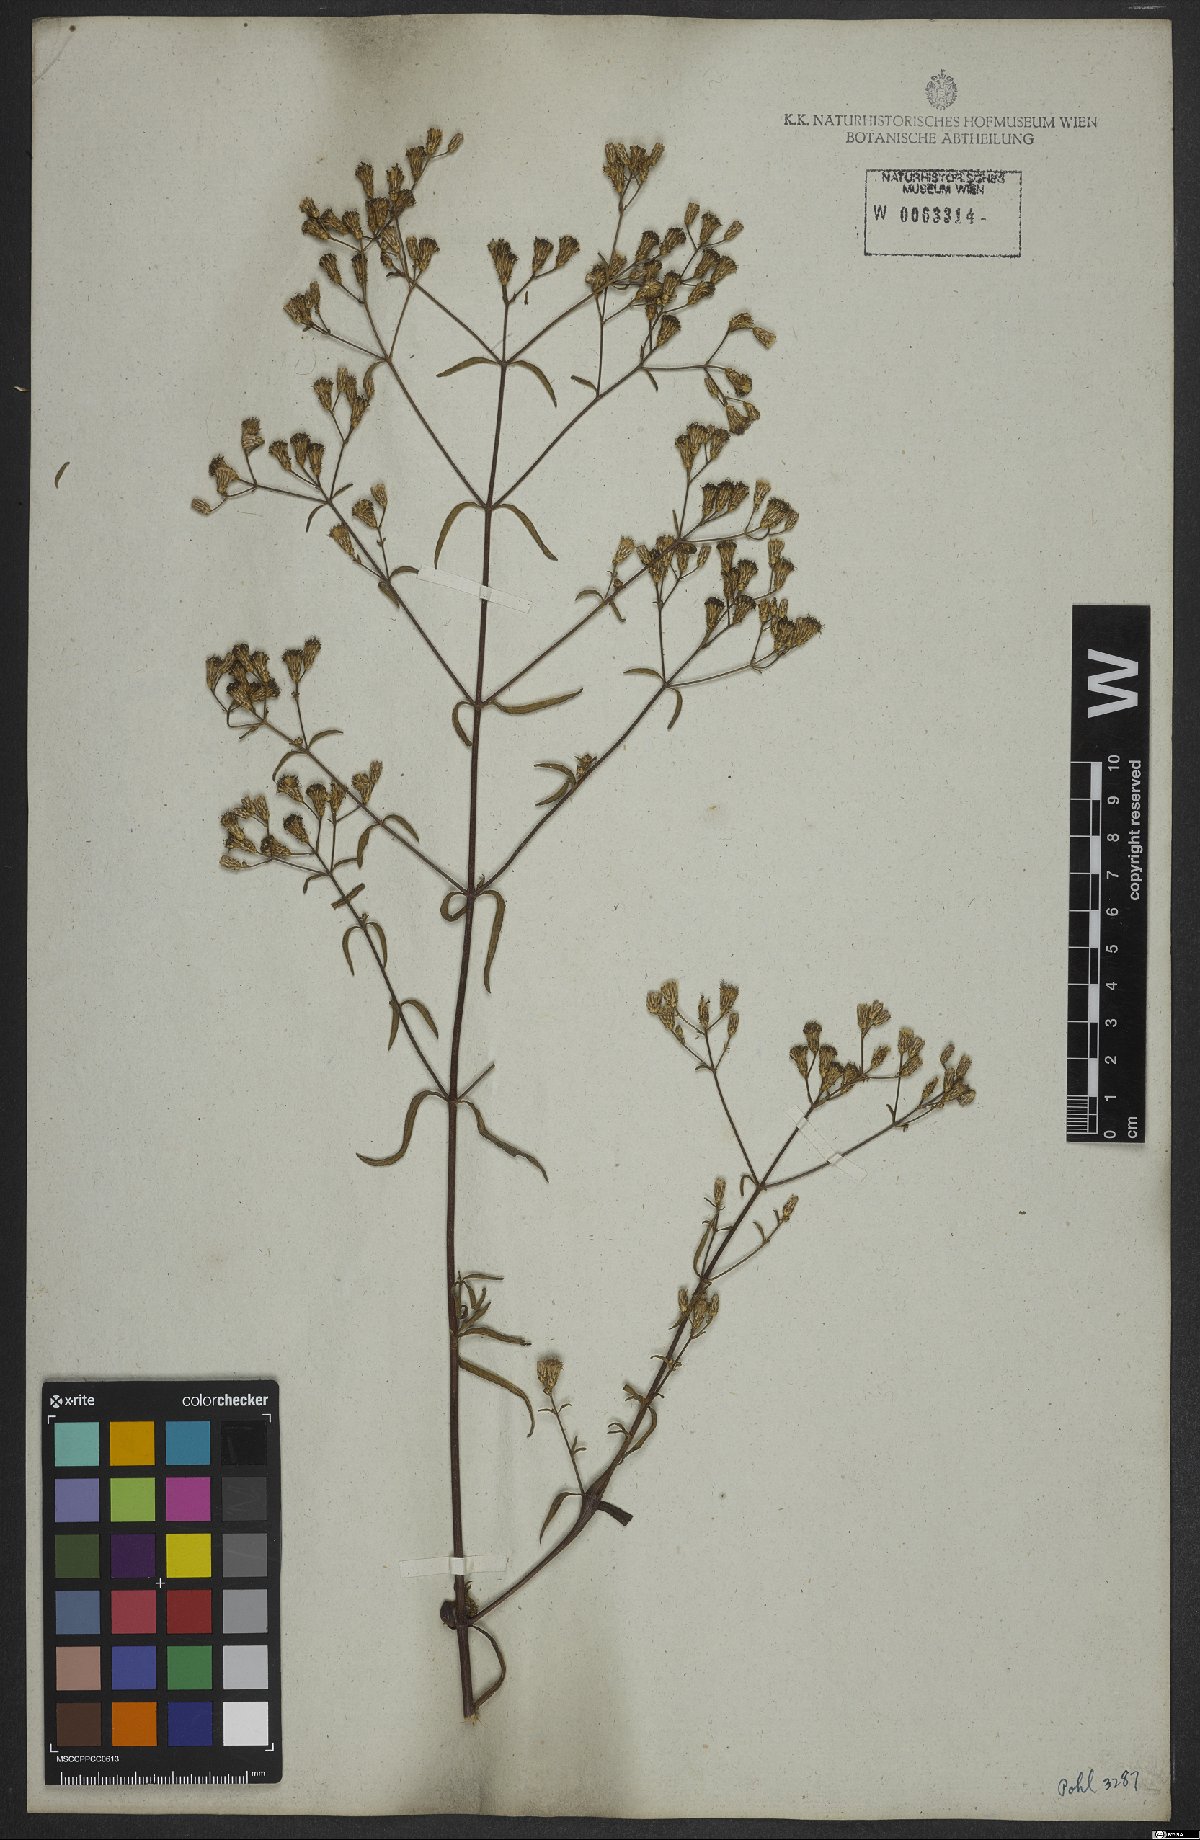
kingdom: Plantae
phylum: Tracheophyta
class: Magnoliopsida
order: Asterales
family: Asteraceae
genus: Chromolaena
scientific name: Chromolaena ivifolia
